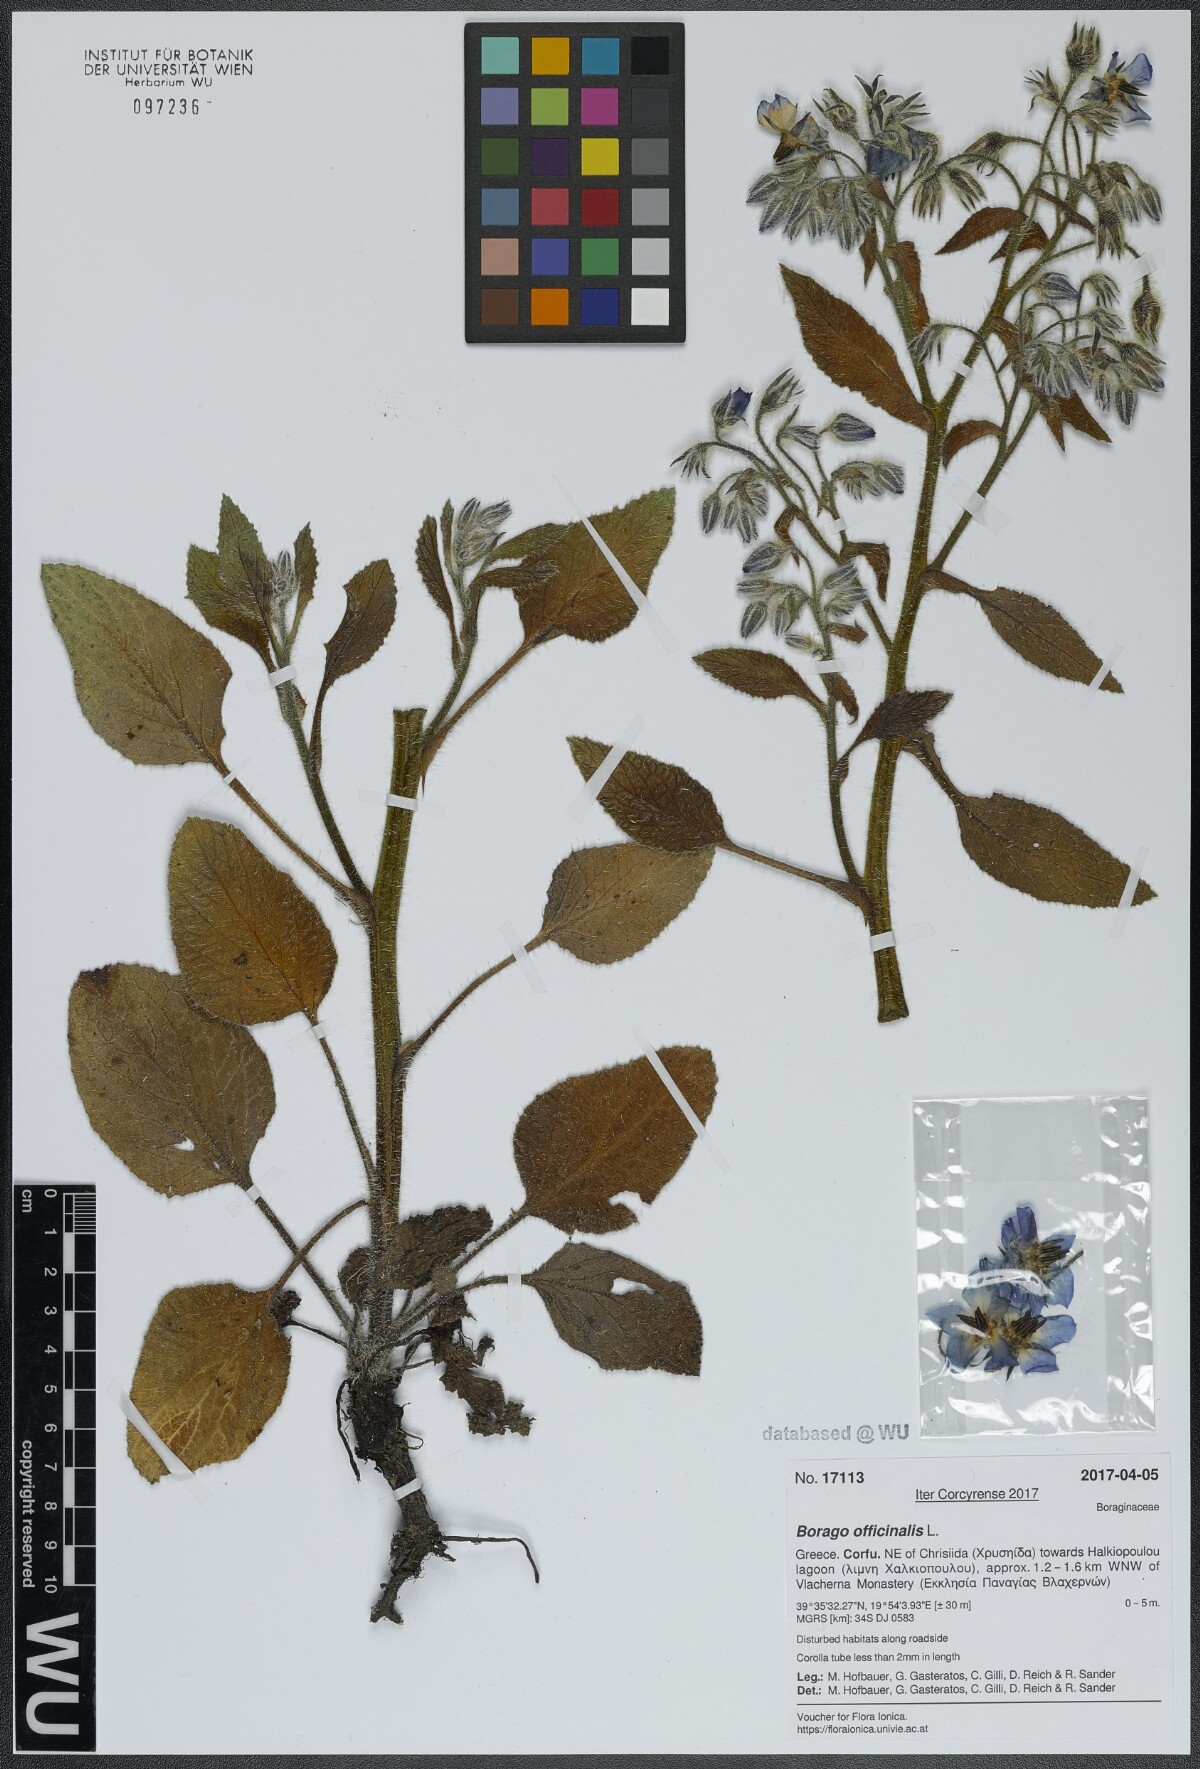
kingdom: Plantae
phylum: Tracheophyta
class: Magnoliopsida
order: Boraginales
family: Boraginaceae
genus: Borago
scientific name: Borago officinalis
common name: Borage
